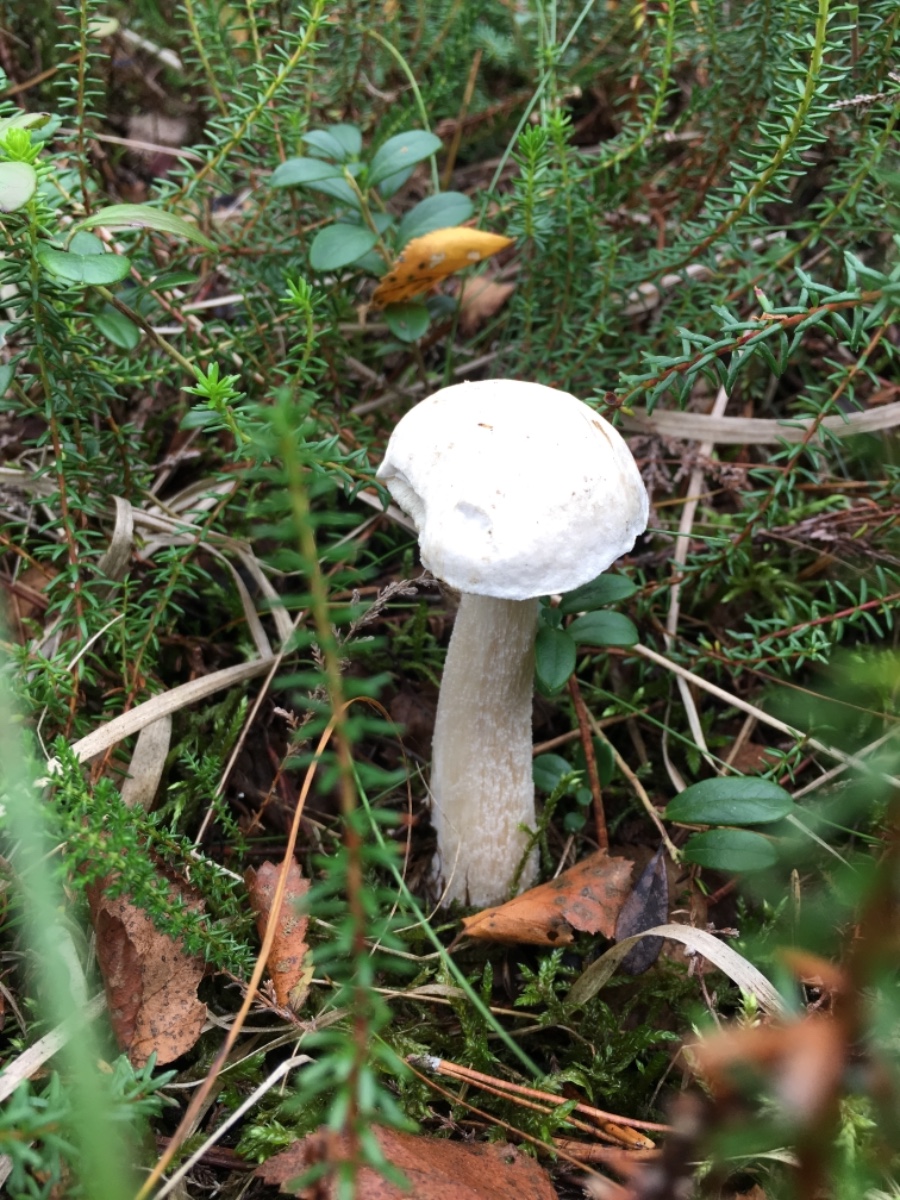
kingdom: Fungi
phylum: Basidiomycota
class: Agaricomycetes
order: Boletales
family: Boletaceae
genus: Leccinum
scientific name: Leccinum
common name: skælrørhat
